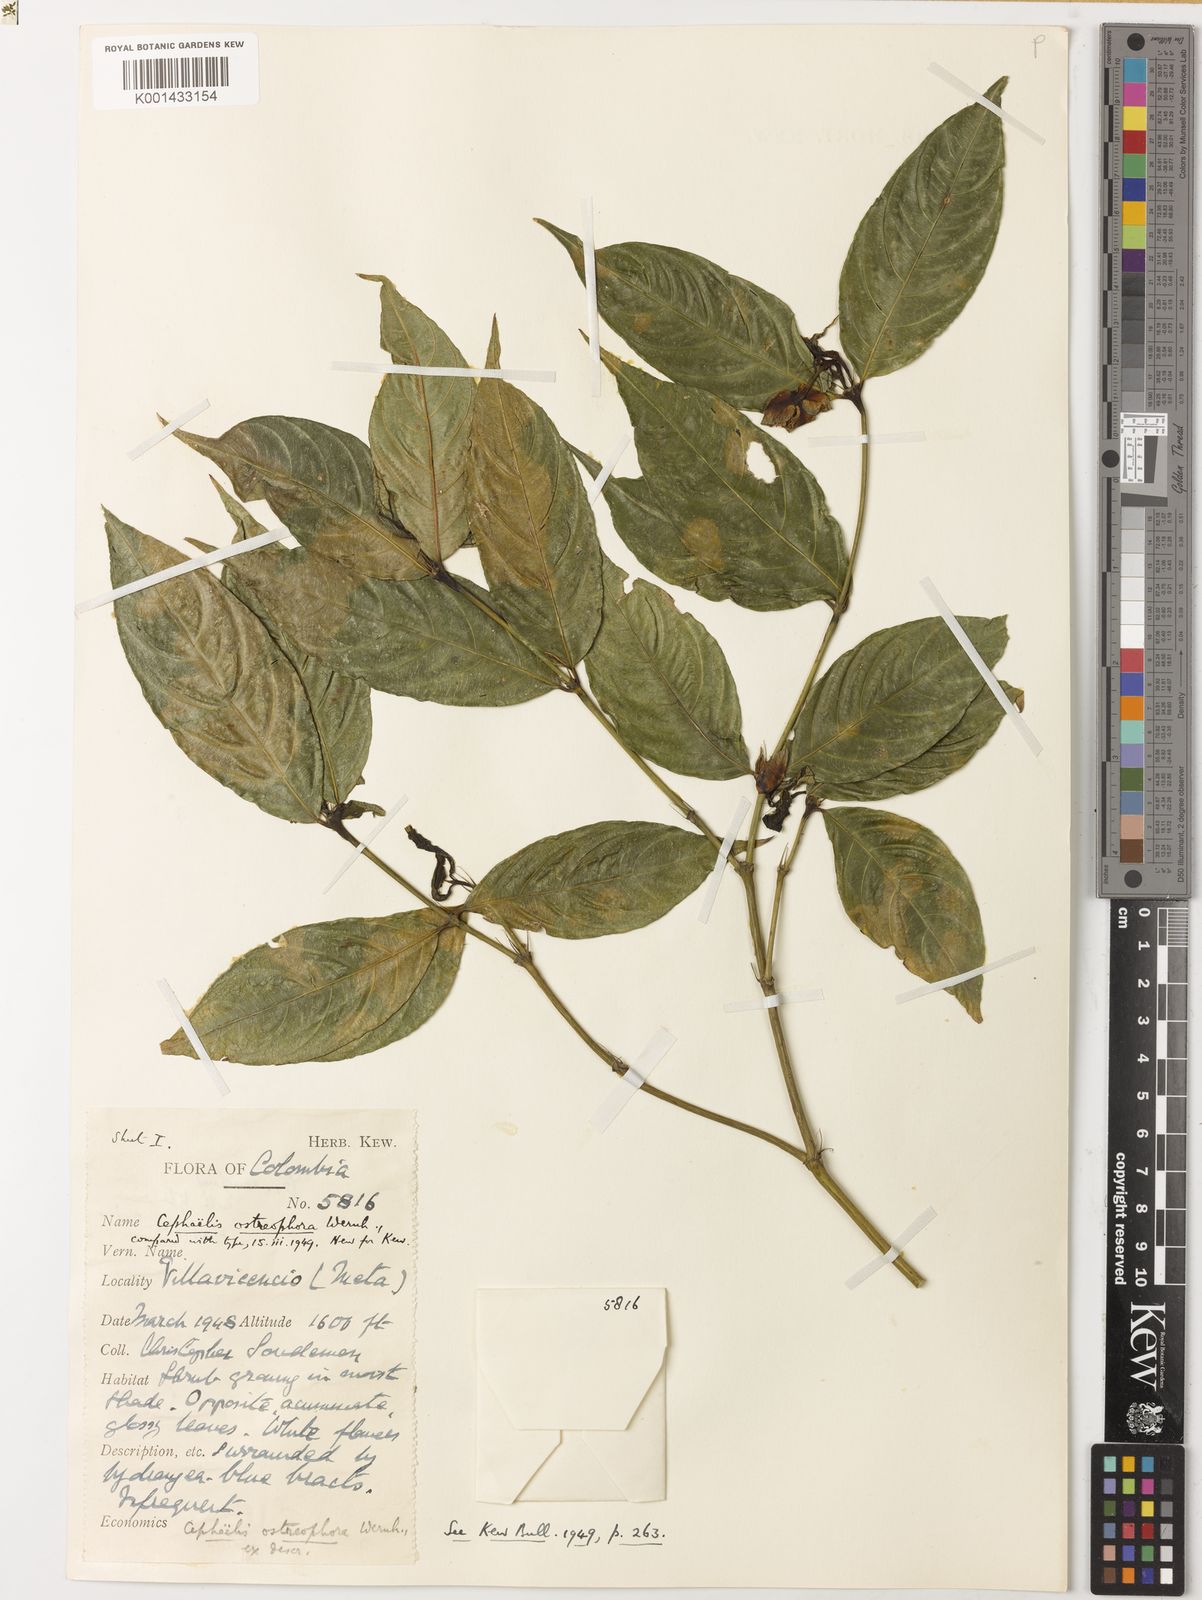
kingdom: Plantae
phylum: Tracheophyta
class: Magnoliopsida
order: Gentianales
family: Rubiaceae
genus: Palicourea
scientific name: Palicourea ostreophora
